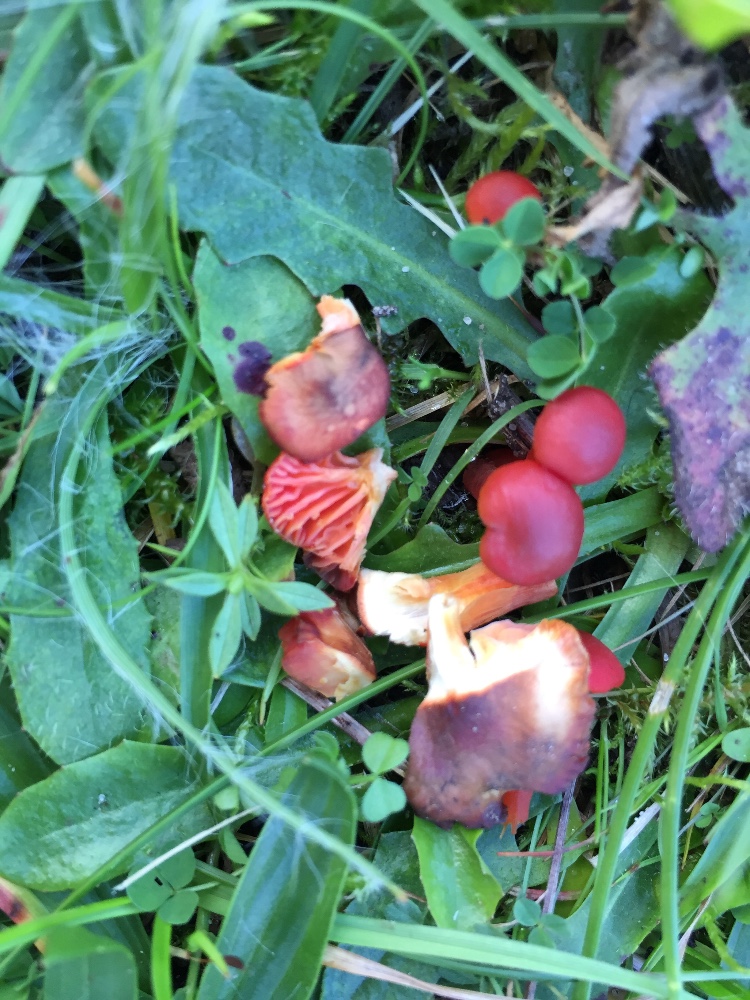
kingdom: Fungi
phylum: Basidiomycota
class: Agaricomycetes
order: Agaricales
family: Hygrophoraceae
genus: Hygrocybe
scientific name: Hygrocybe phaeococcinea
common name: sortdugget vokshat
